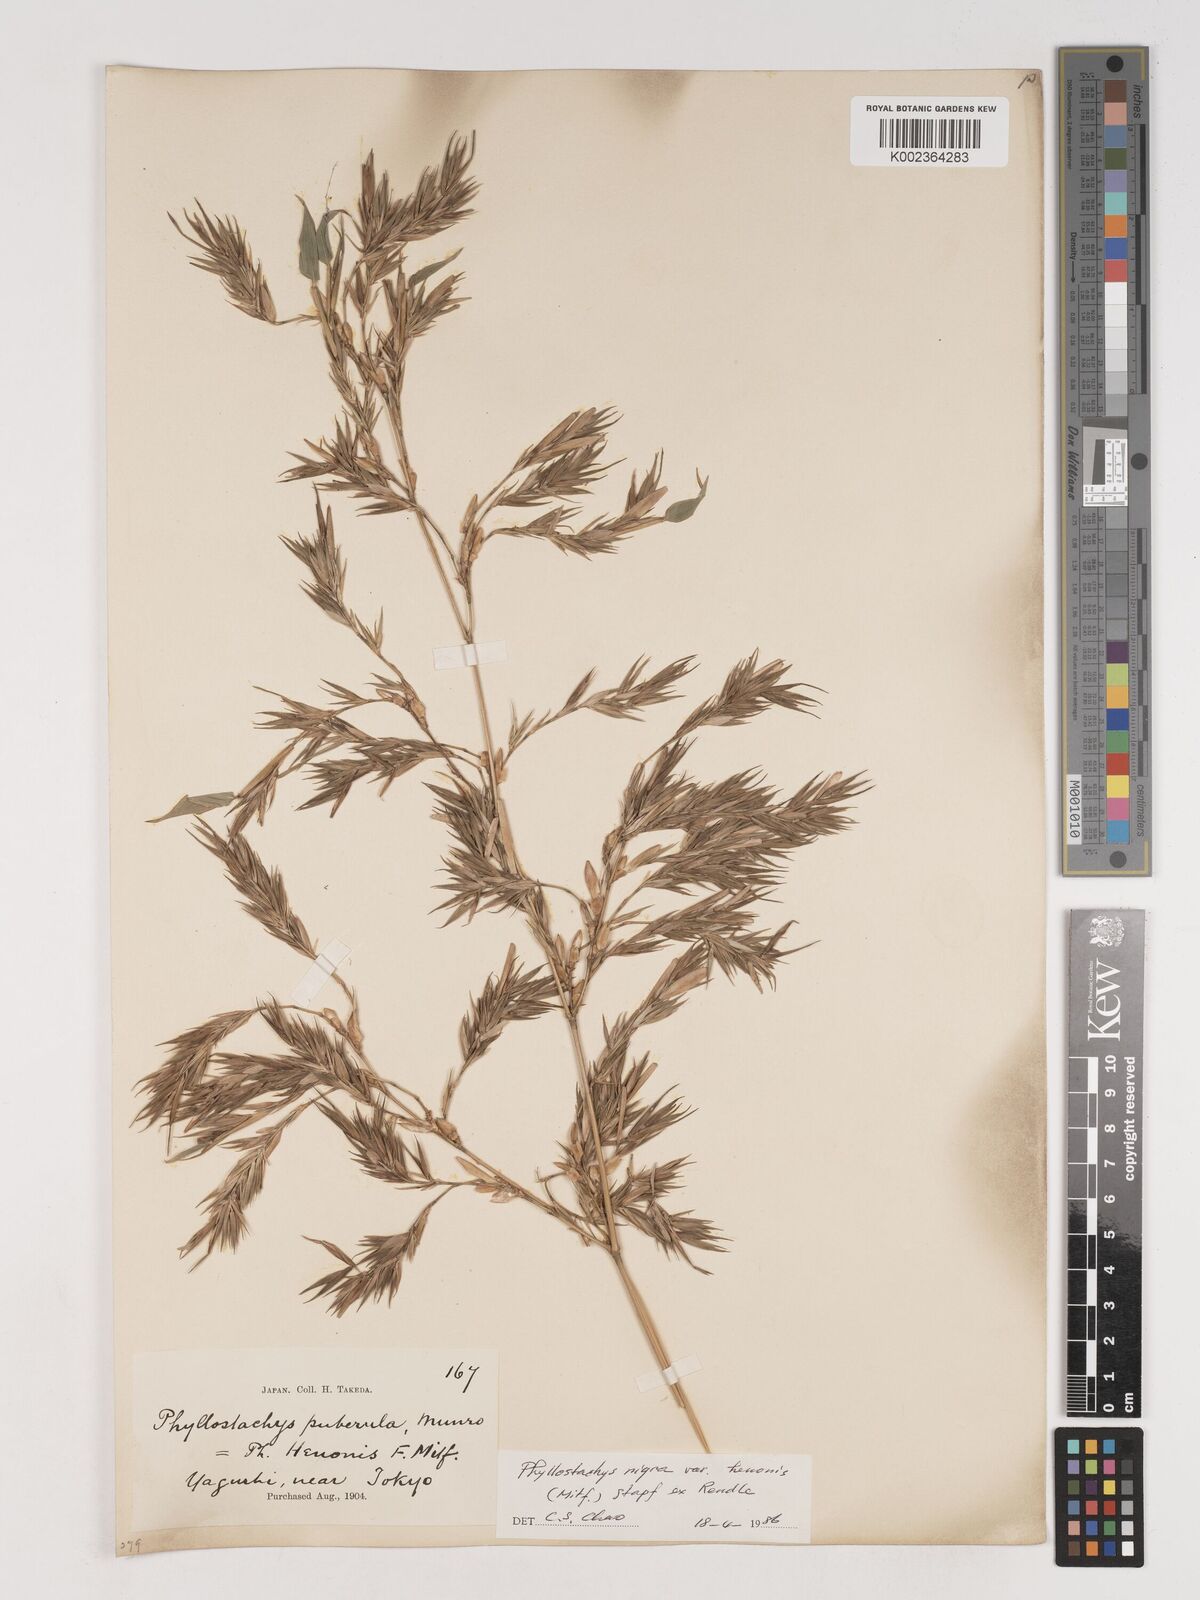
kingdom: Plantae
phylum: Tracheophyta
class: Liliopsida
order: Poales
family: Poaceae
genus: Phyllostachys
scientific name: Phyllostachys nigra
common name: Black bamboo
